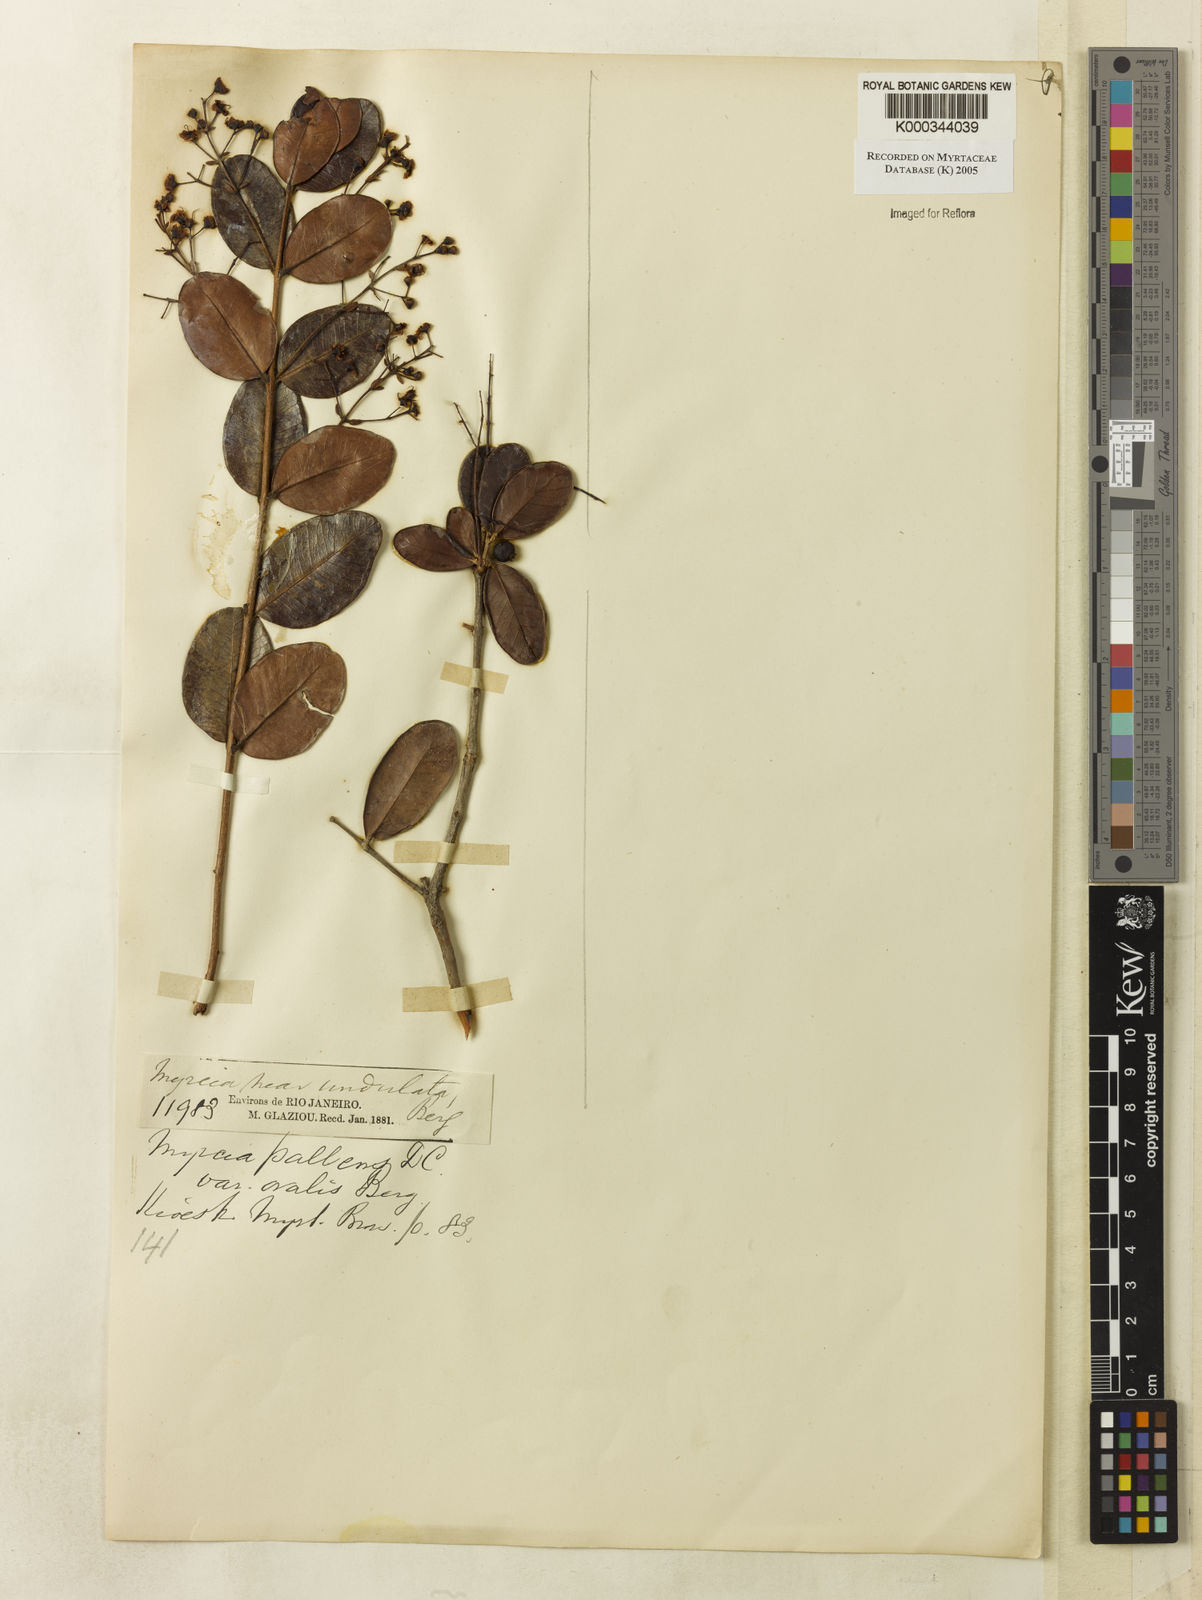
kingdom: Plantae
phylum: Tracheophyta
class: Magnoliopsida
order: Myrtales
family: Myrtaceae
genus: Myrcia
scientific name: Myrcia guianensis
